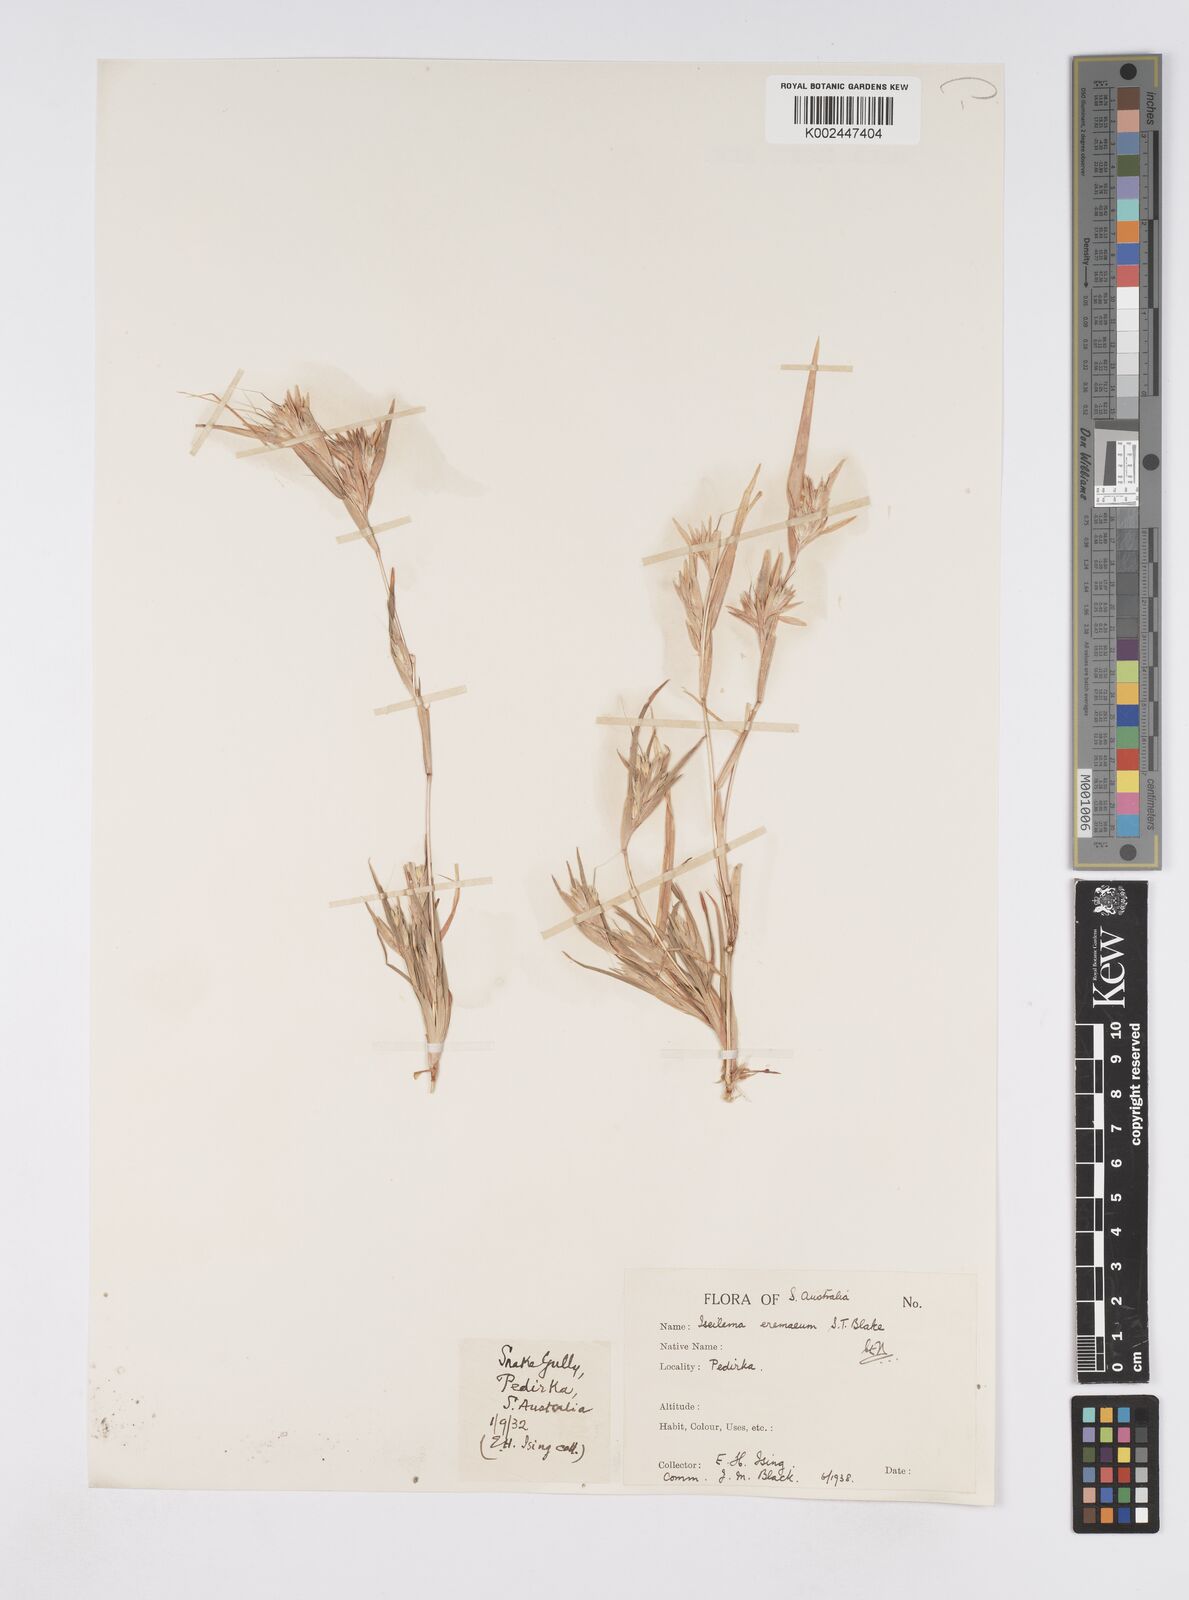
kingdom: Plantae
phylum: Tracheophyta
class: Liliopsida
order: Poales
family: Poaceae
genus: Iseilema
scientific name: Iseilema eremaeum
